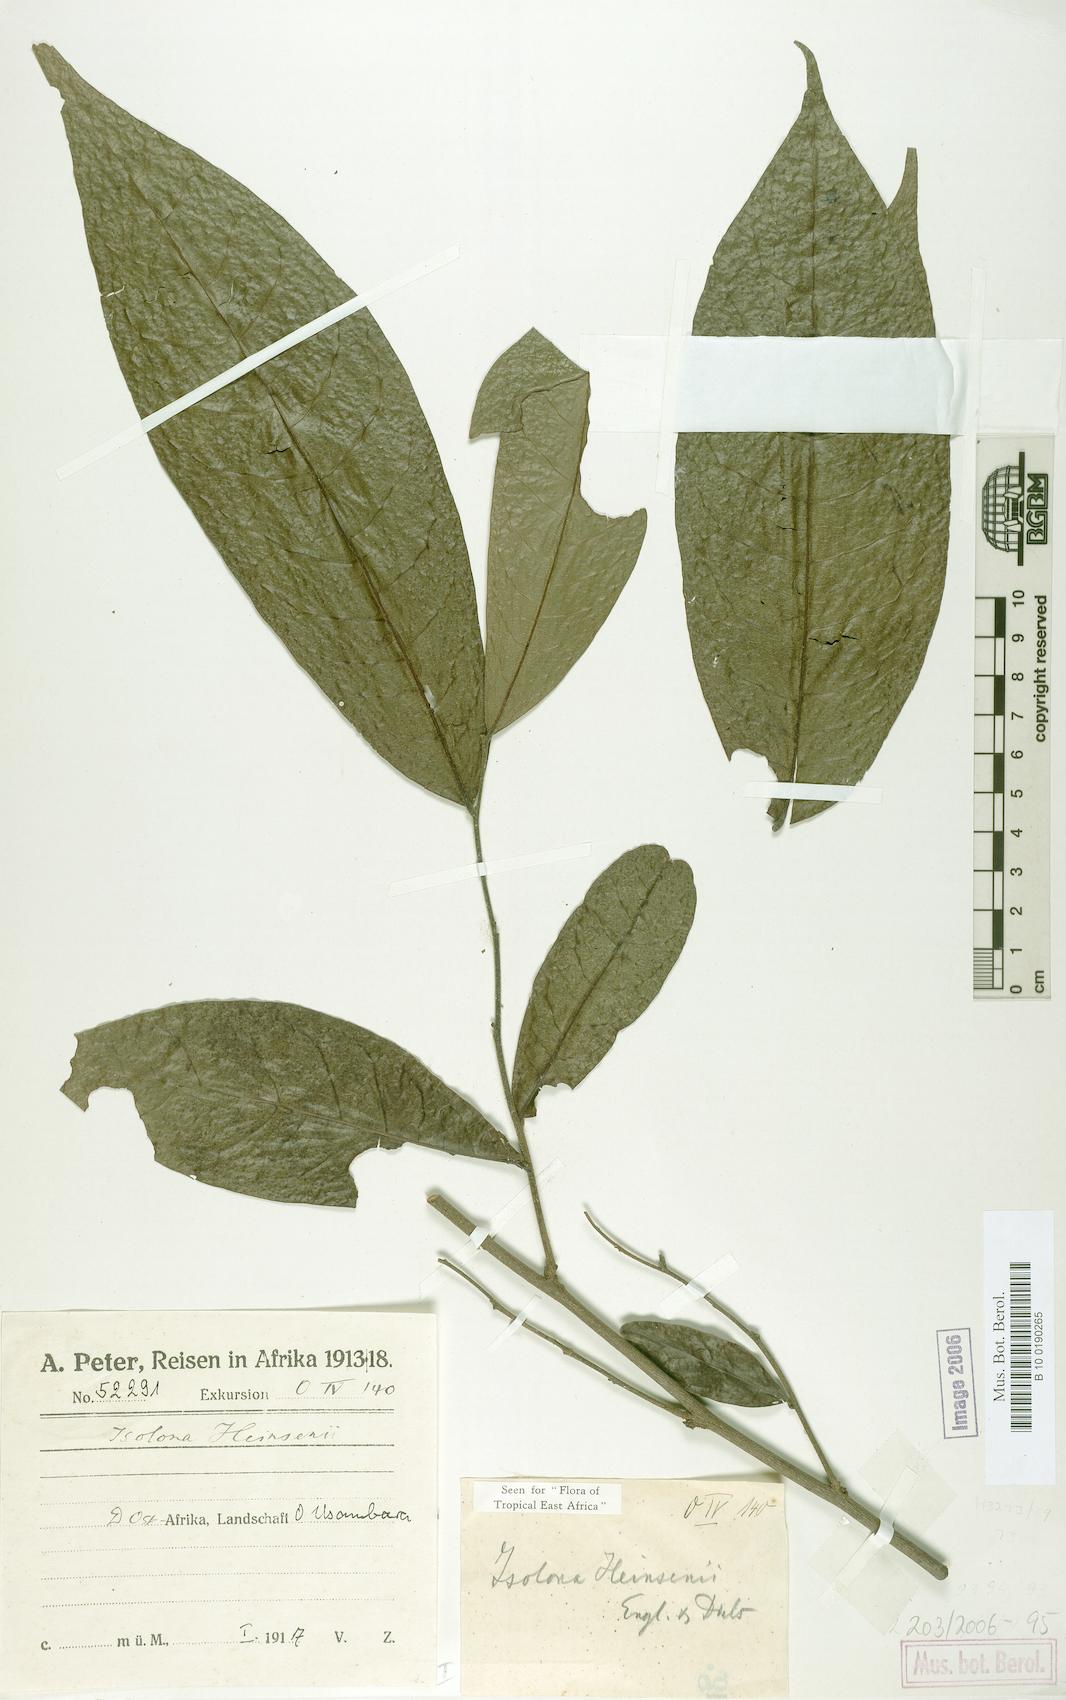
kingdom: Plantae
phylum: Tracheophyta
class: Magnoliopsida
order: Magnoliales
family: Annonaceae
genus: Isolona
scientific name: Isolona heinsenii
